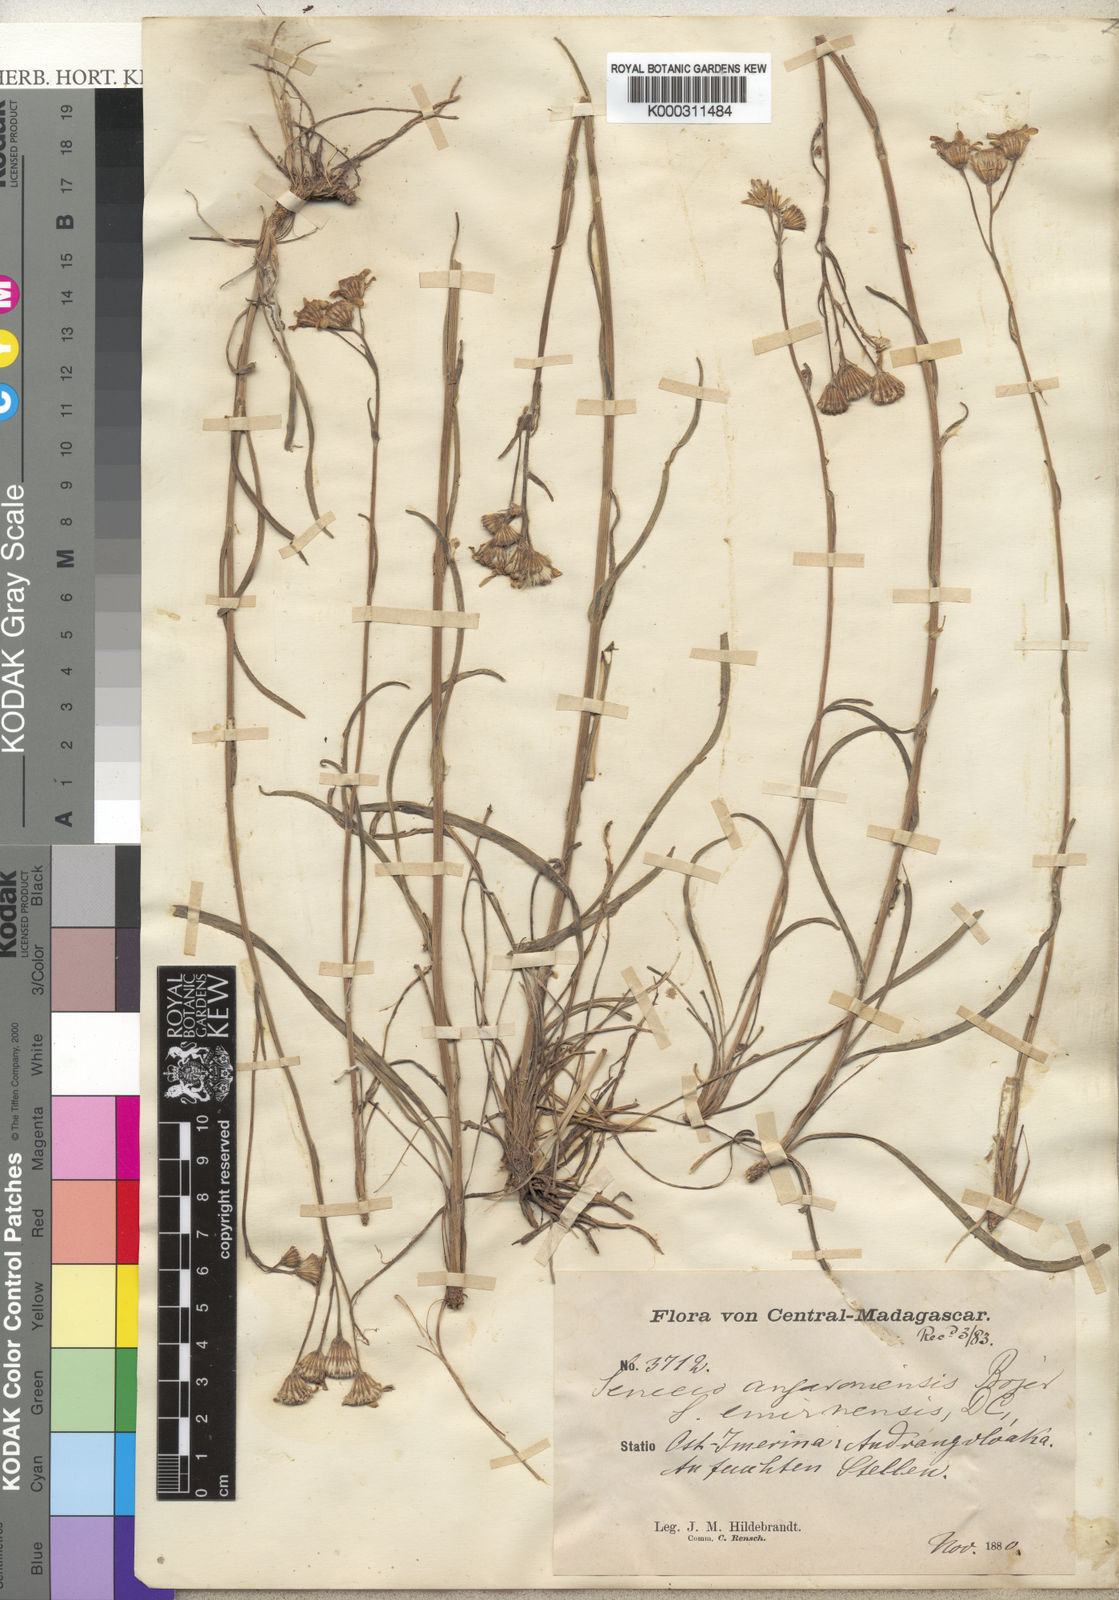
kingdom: Plantae
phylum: Tracheophyta
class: Magnoliopsida
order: Asterales
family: Asteraceae
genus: Senecio
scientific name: Senecio emirnensis
